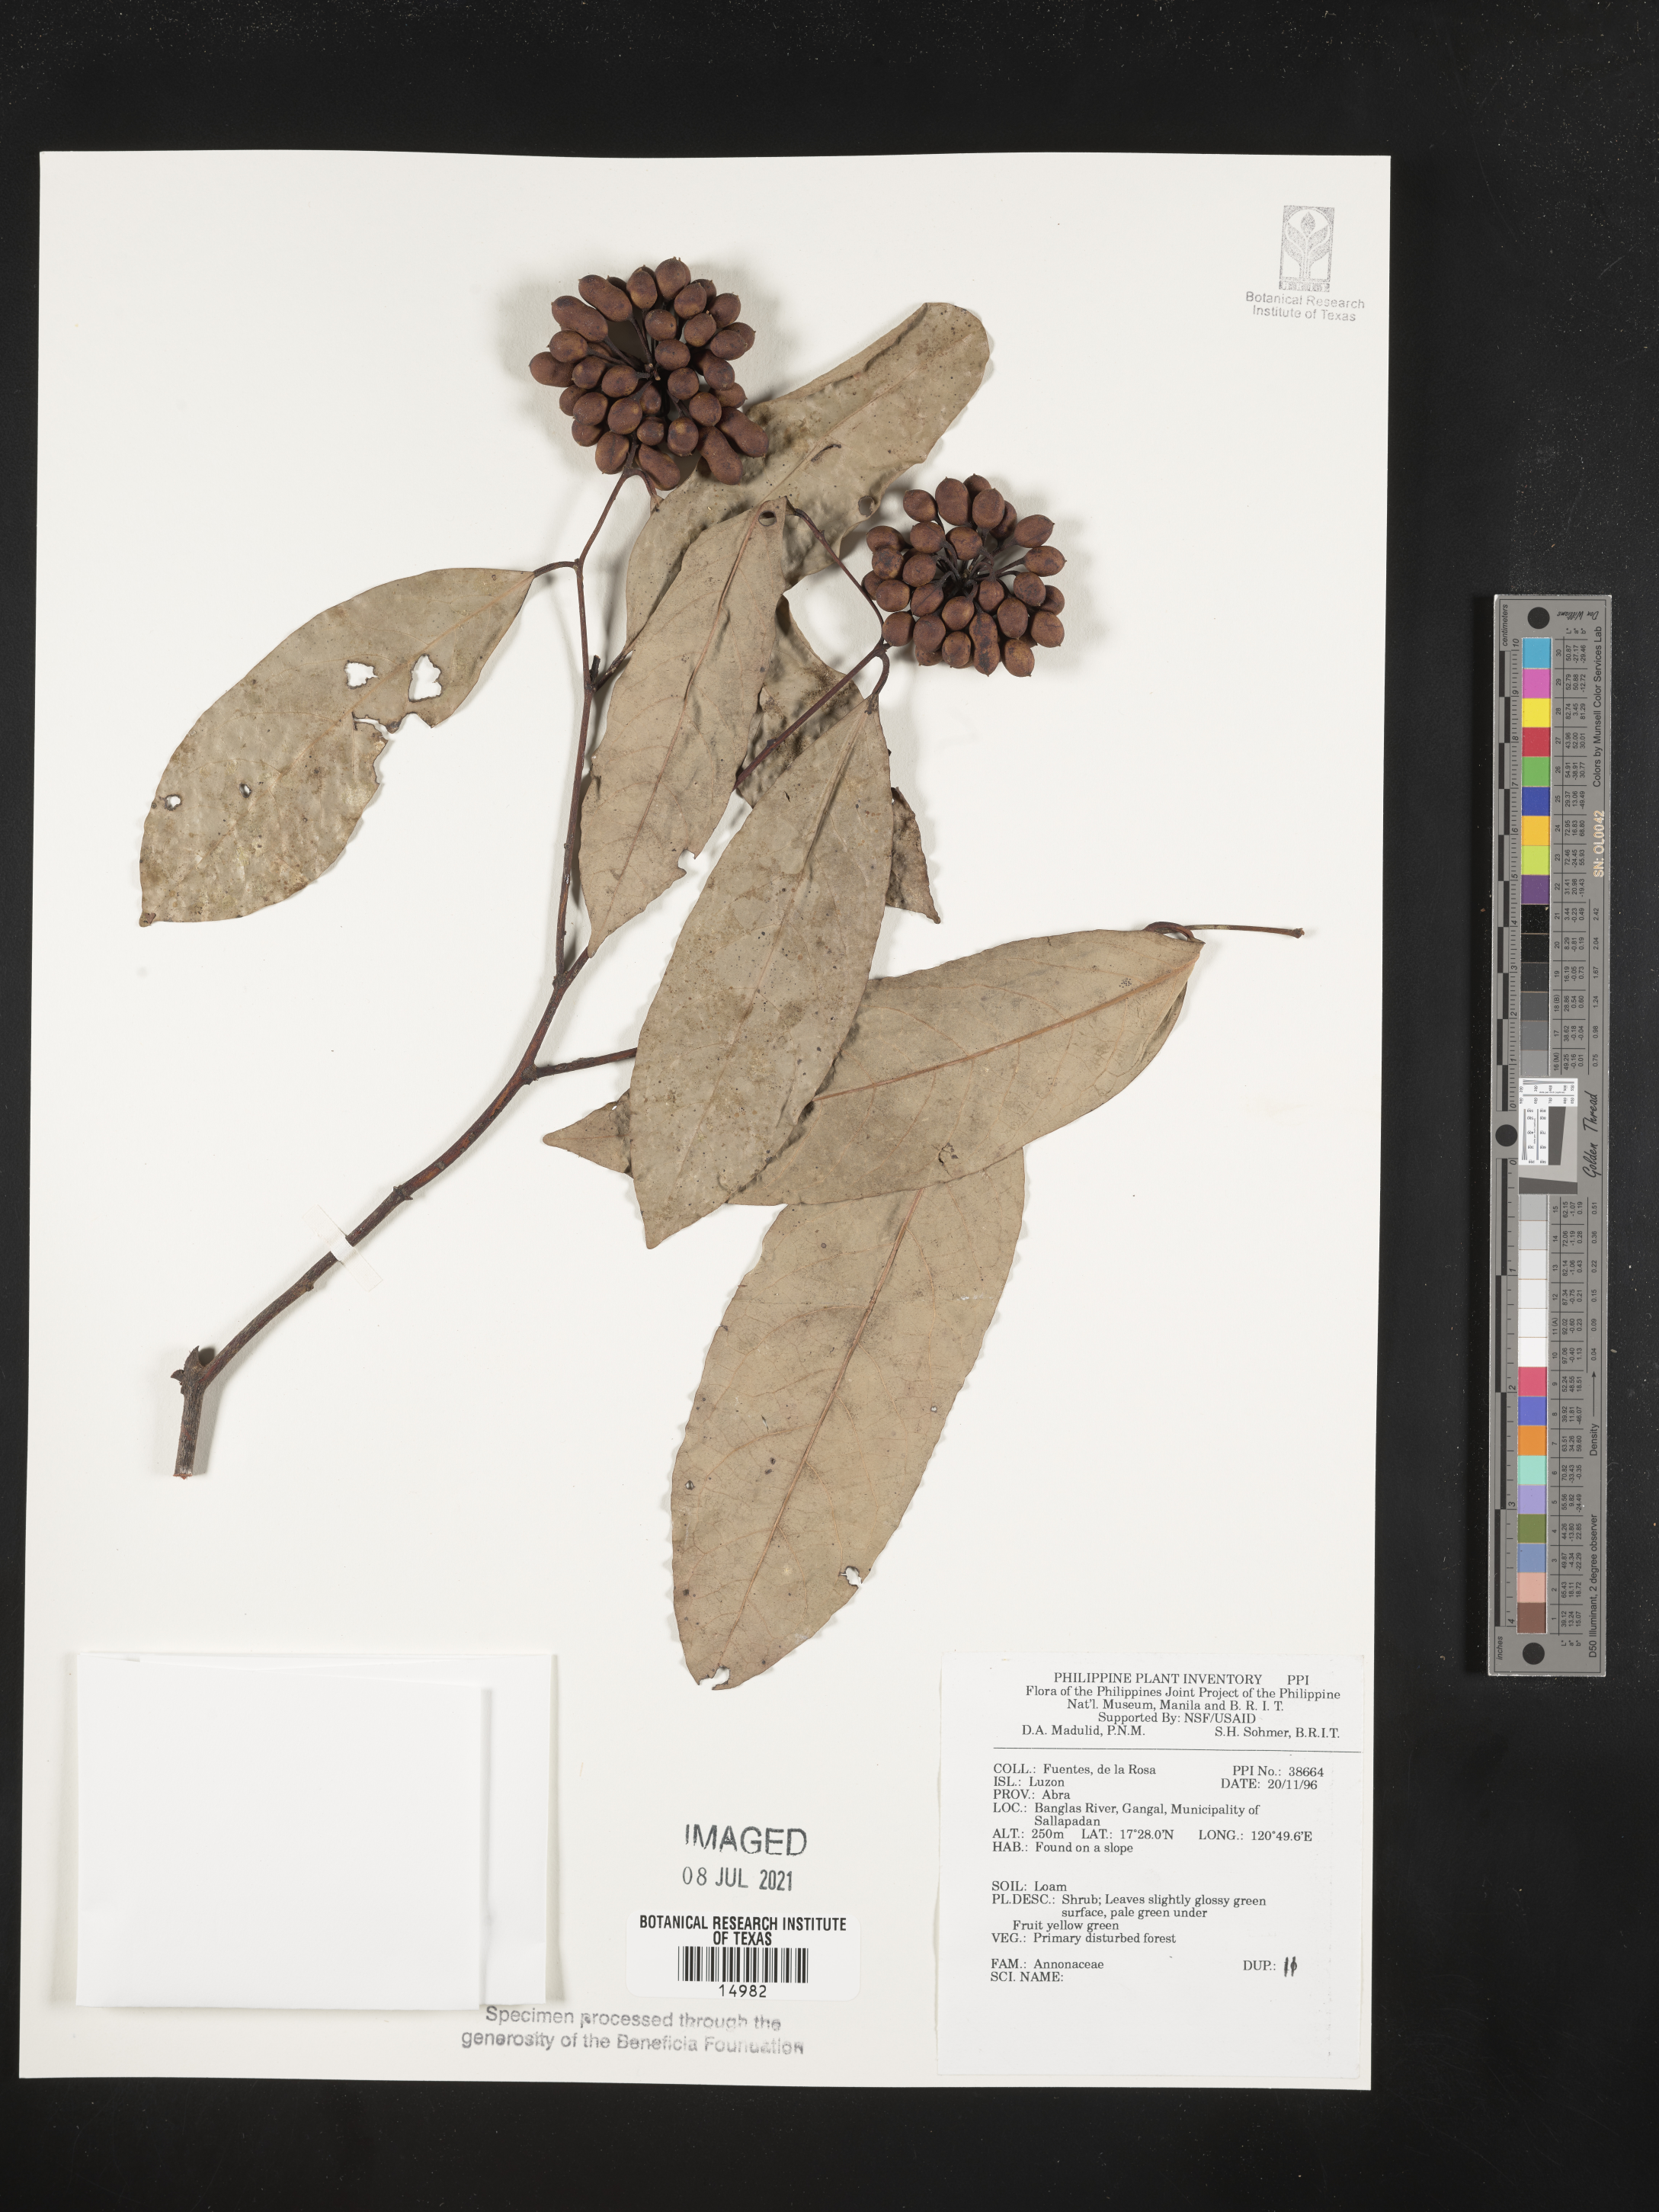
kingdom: Plantae
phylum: Tracheophyta
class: Magnoliopsida
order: Magnoliales
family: Annonaceae
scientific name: Annonaceae
